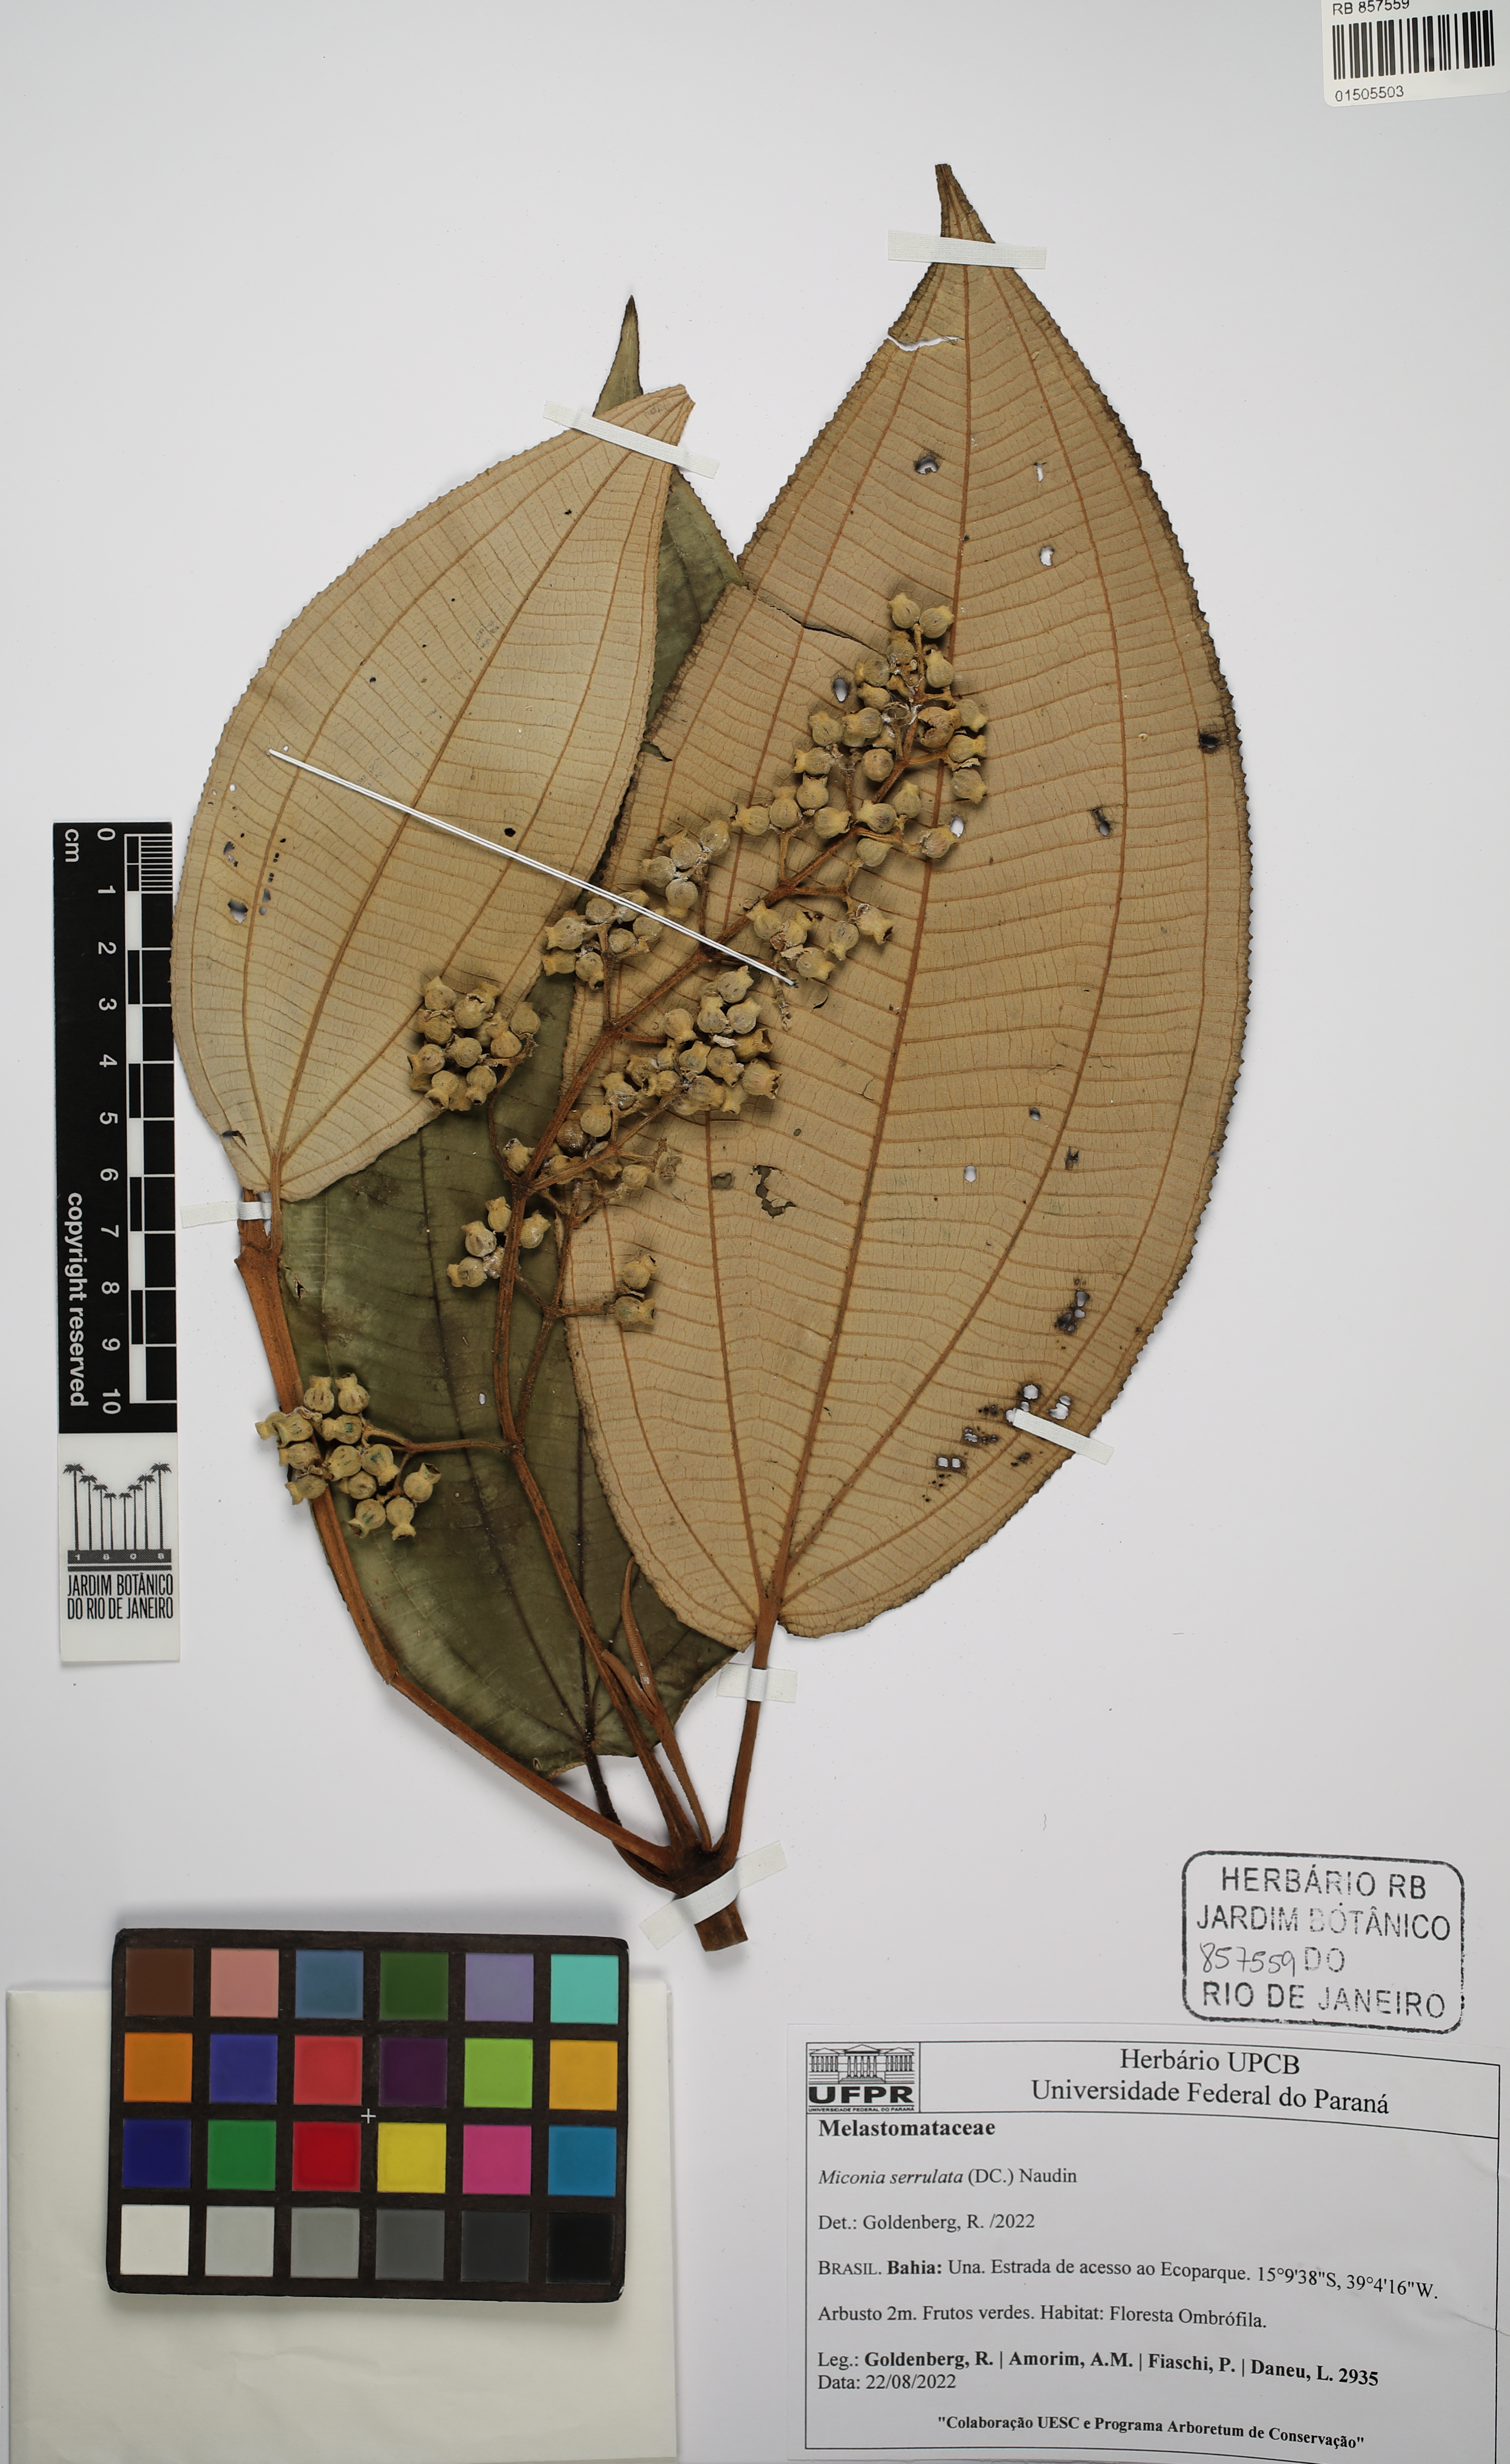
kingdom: Plantae
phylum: Tracheophyta
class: Magnoliopsida
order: Asterales
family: Asteraceae
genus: Erigeron
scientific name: Erigeron philadelphicus
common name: Robin's-plantain
